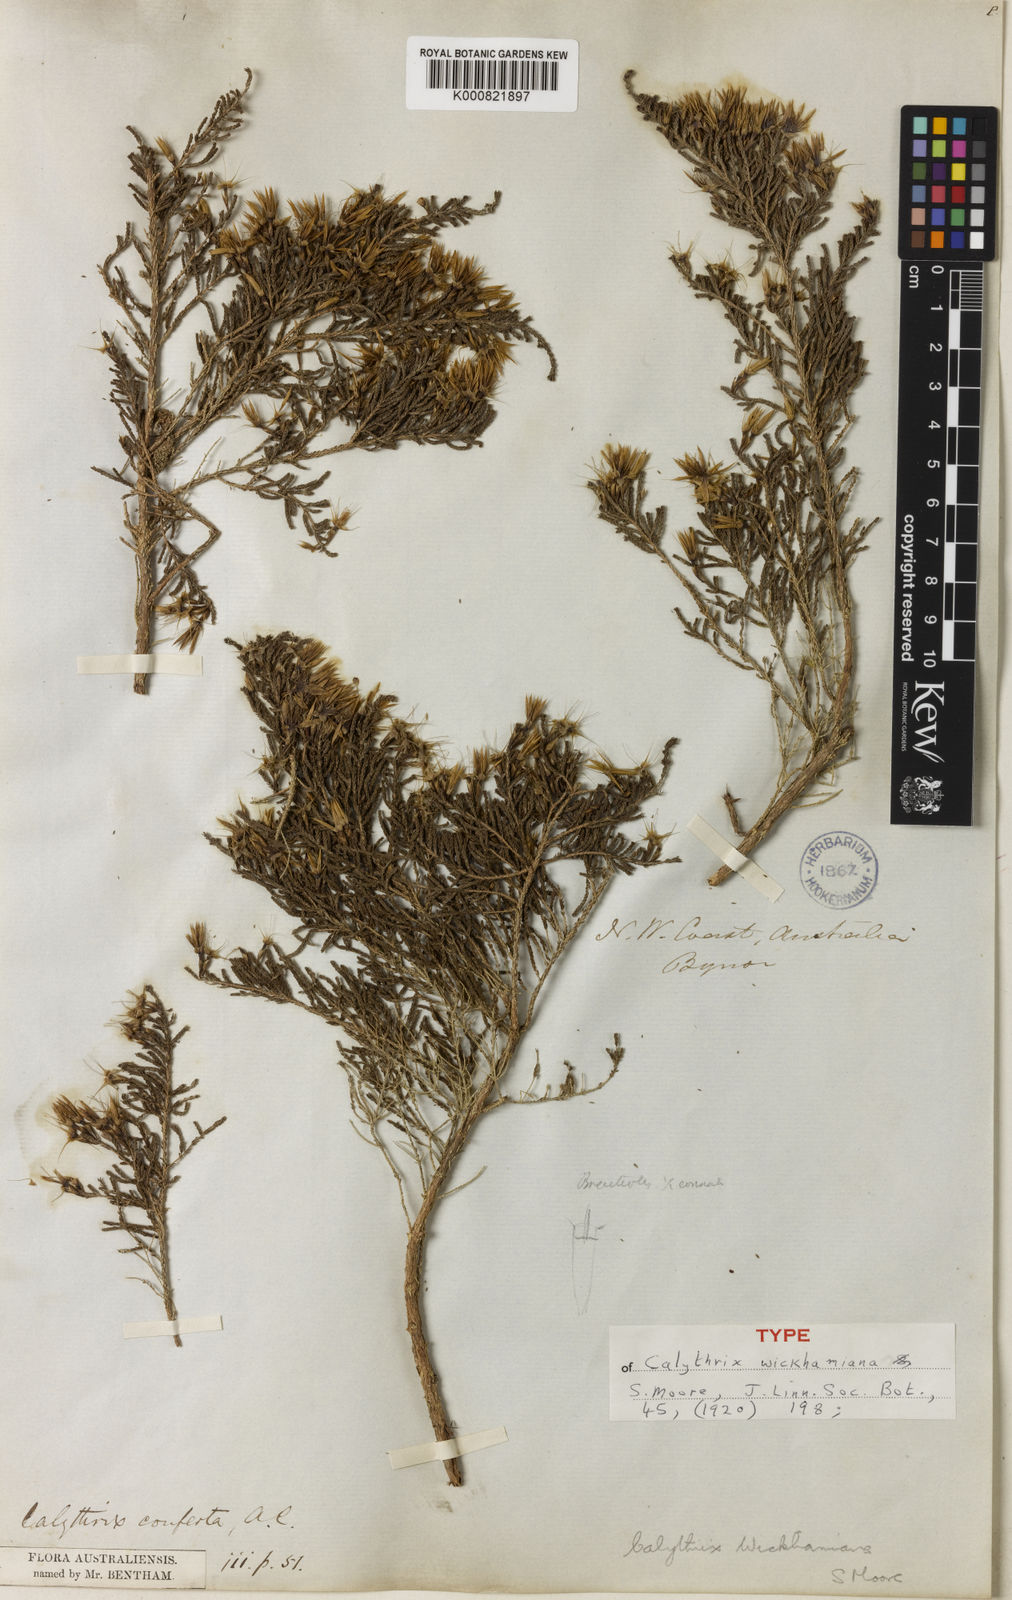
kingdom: Plantae
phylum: Tracheophyta
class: Magnoliopsida
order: Myrtales
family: Myrtaceae
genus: Calytrix
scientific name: Calytrix exstipulata
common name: Kimberley heather
